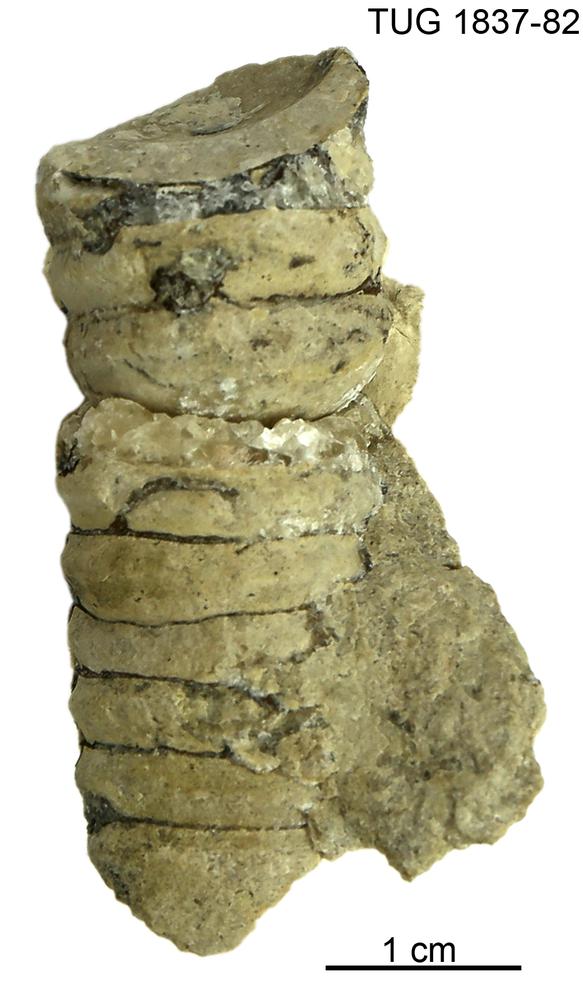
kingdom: Animalia
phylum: Mollusca
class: Cephalopoda
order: Orthocerida
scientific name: Orthocerida
